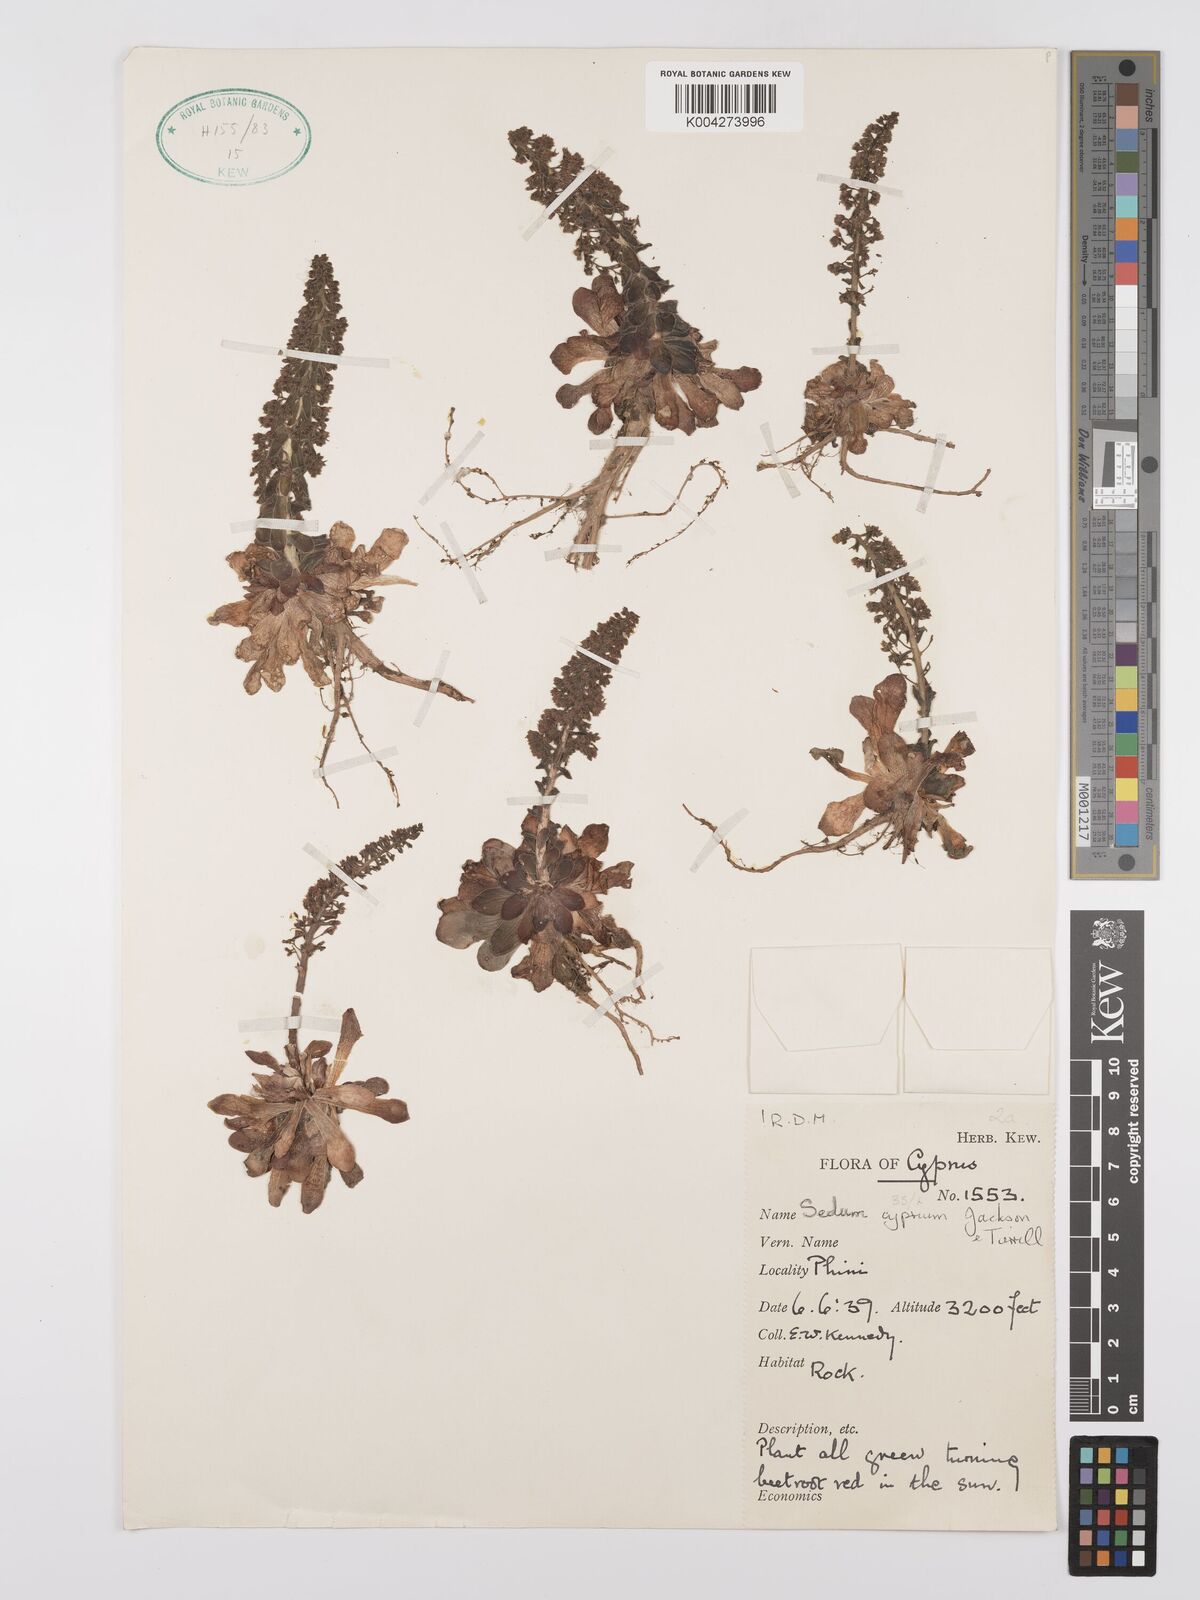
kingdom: Plantae
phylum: Tracheophyta
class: Magnoliopsida
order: Saxifragales
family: Crassulaceae
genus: Sedum
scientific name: Sedum cyprium
